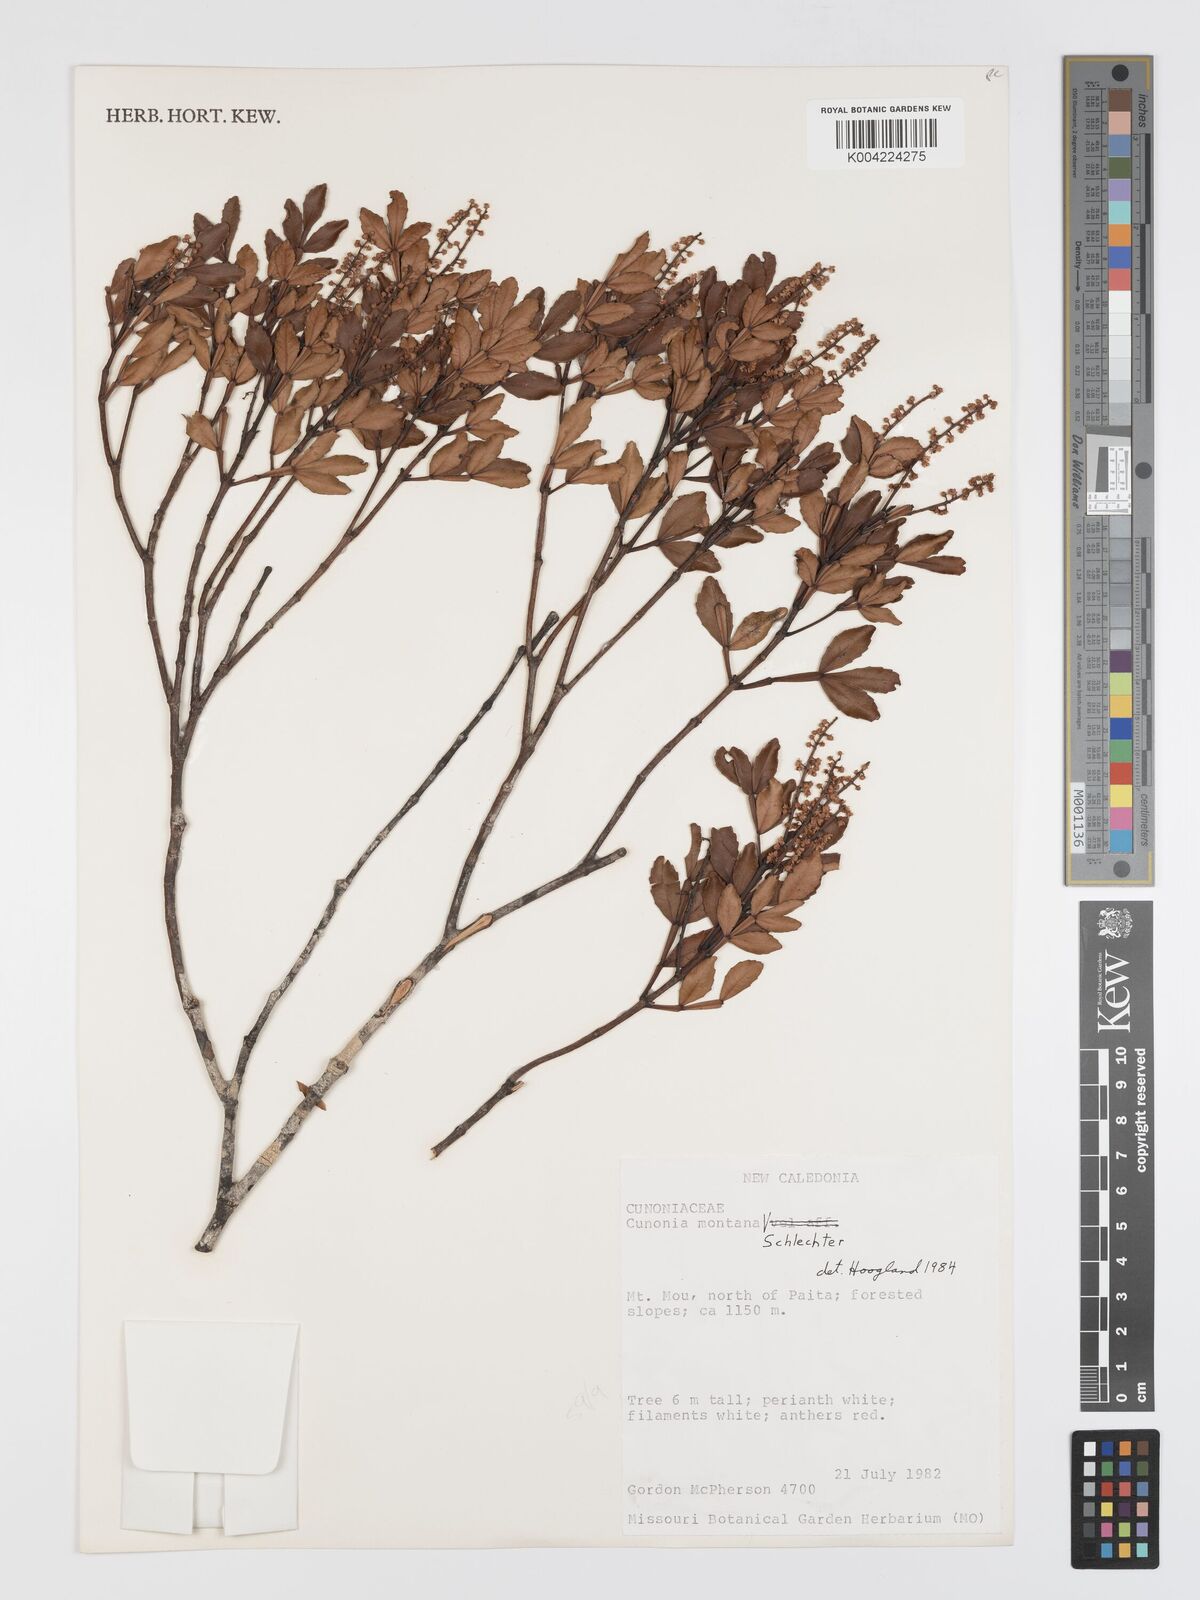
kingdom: Plantae
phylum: Tracheophyta
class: Magnoliopsida
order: Oxalidales
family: Cunoniaceae
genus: Cunonia
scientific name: Cunonia montana
